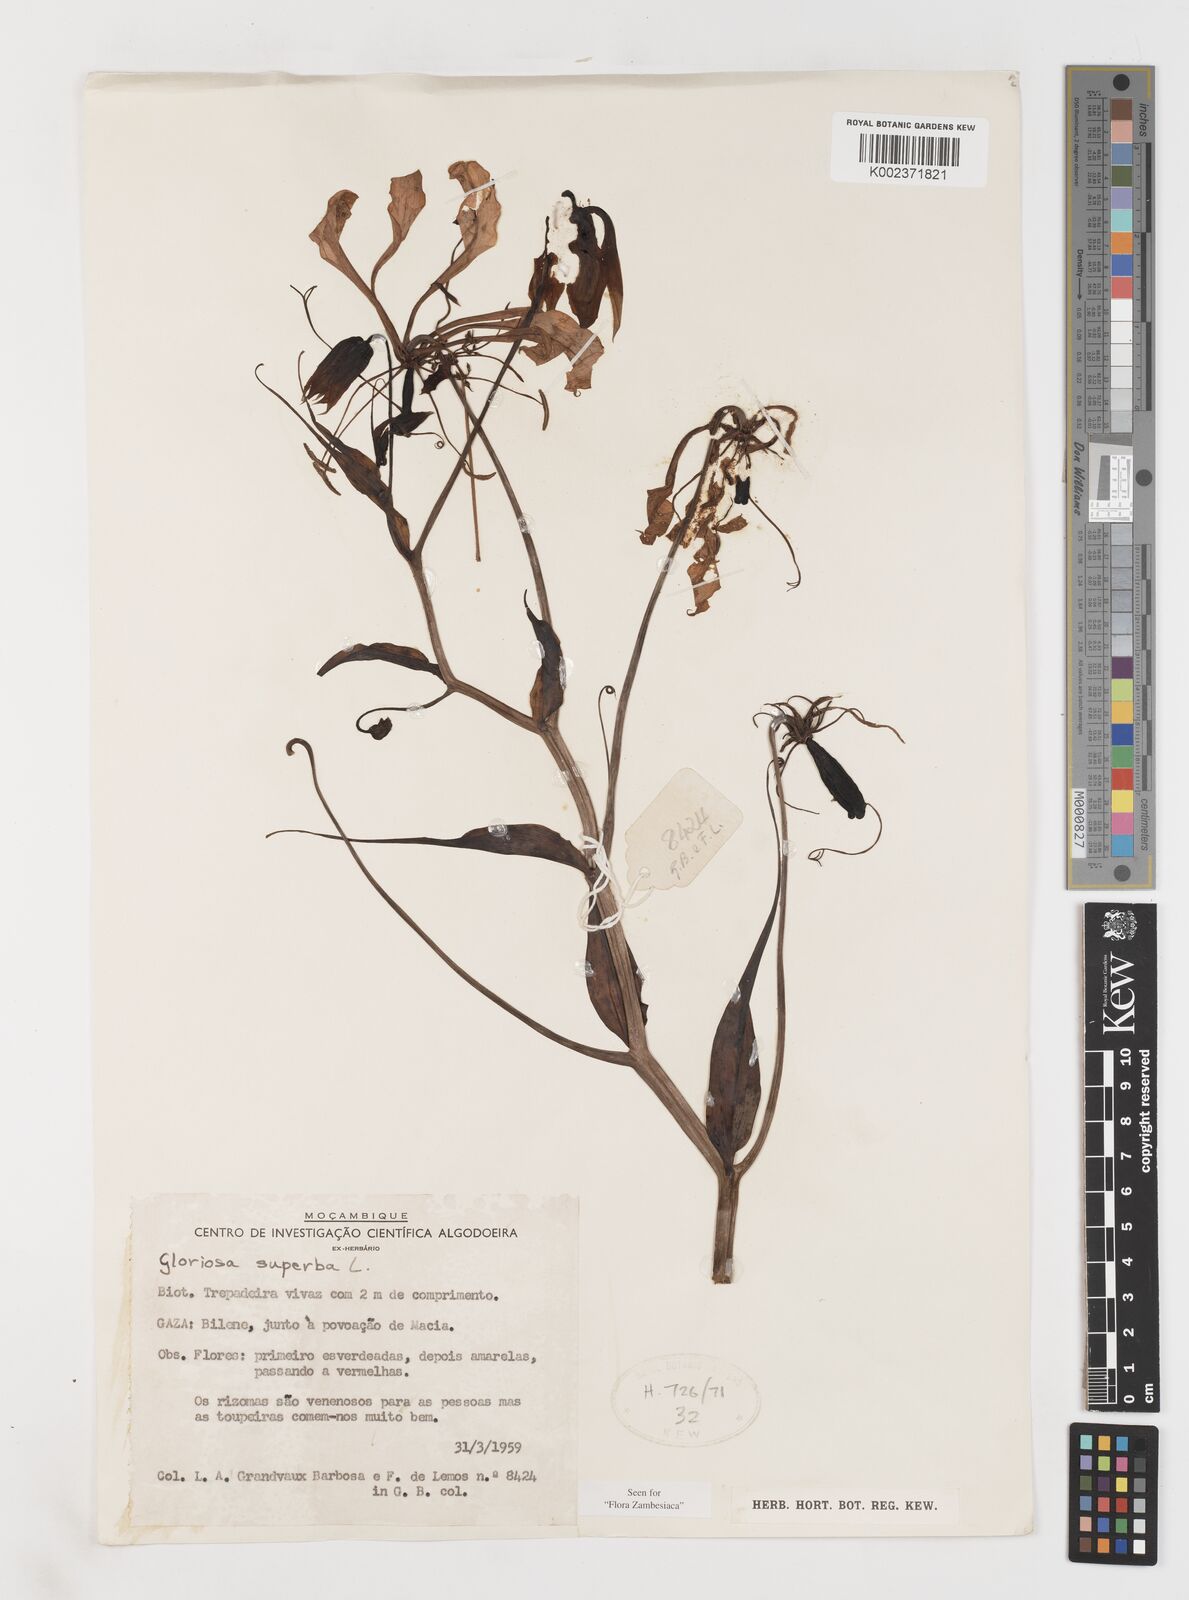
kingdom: Plantae
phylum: Tracheophyta
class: Liliopsida
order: Liliales
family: Colchicaceae
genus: Gloriosa
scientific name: Gloriosa simplex
